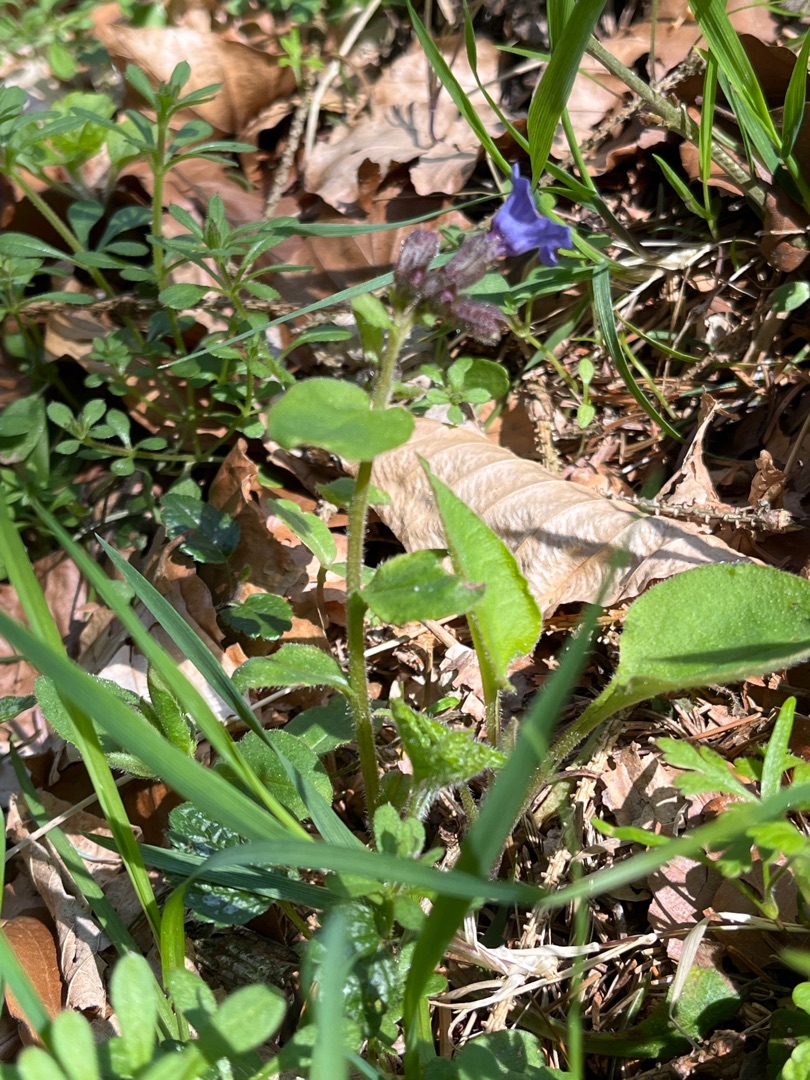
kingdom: Plantae
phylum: Tracheophyta
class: Magnoliopsida
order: Boraginales
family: Boraginaceae
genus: Pulmonaria
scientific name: Pulmonaria obscura
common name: Almindelig lungeurt
